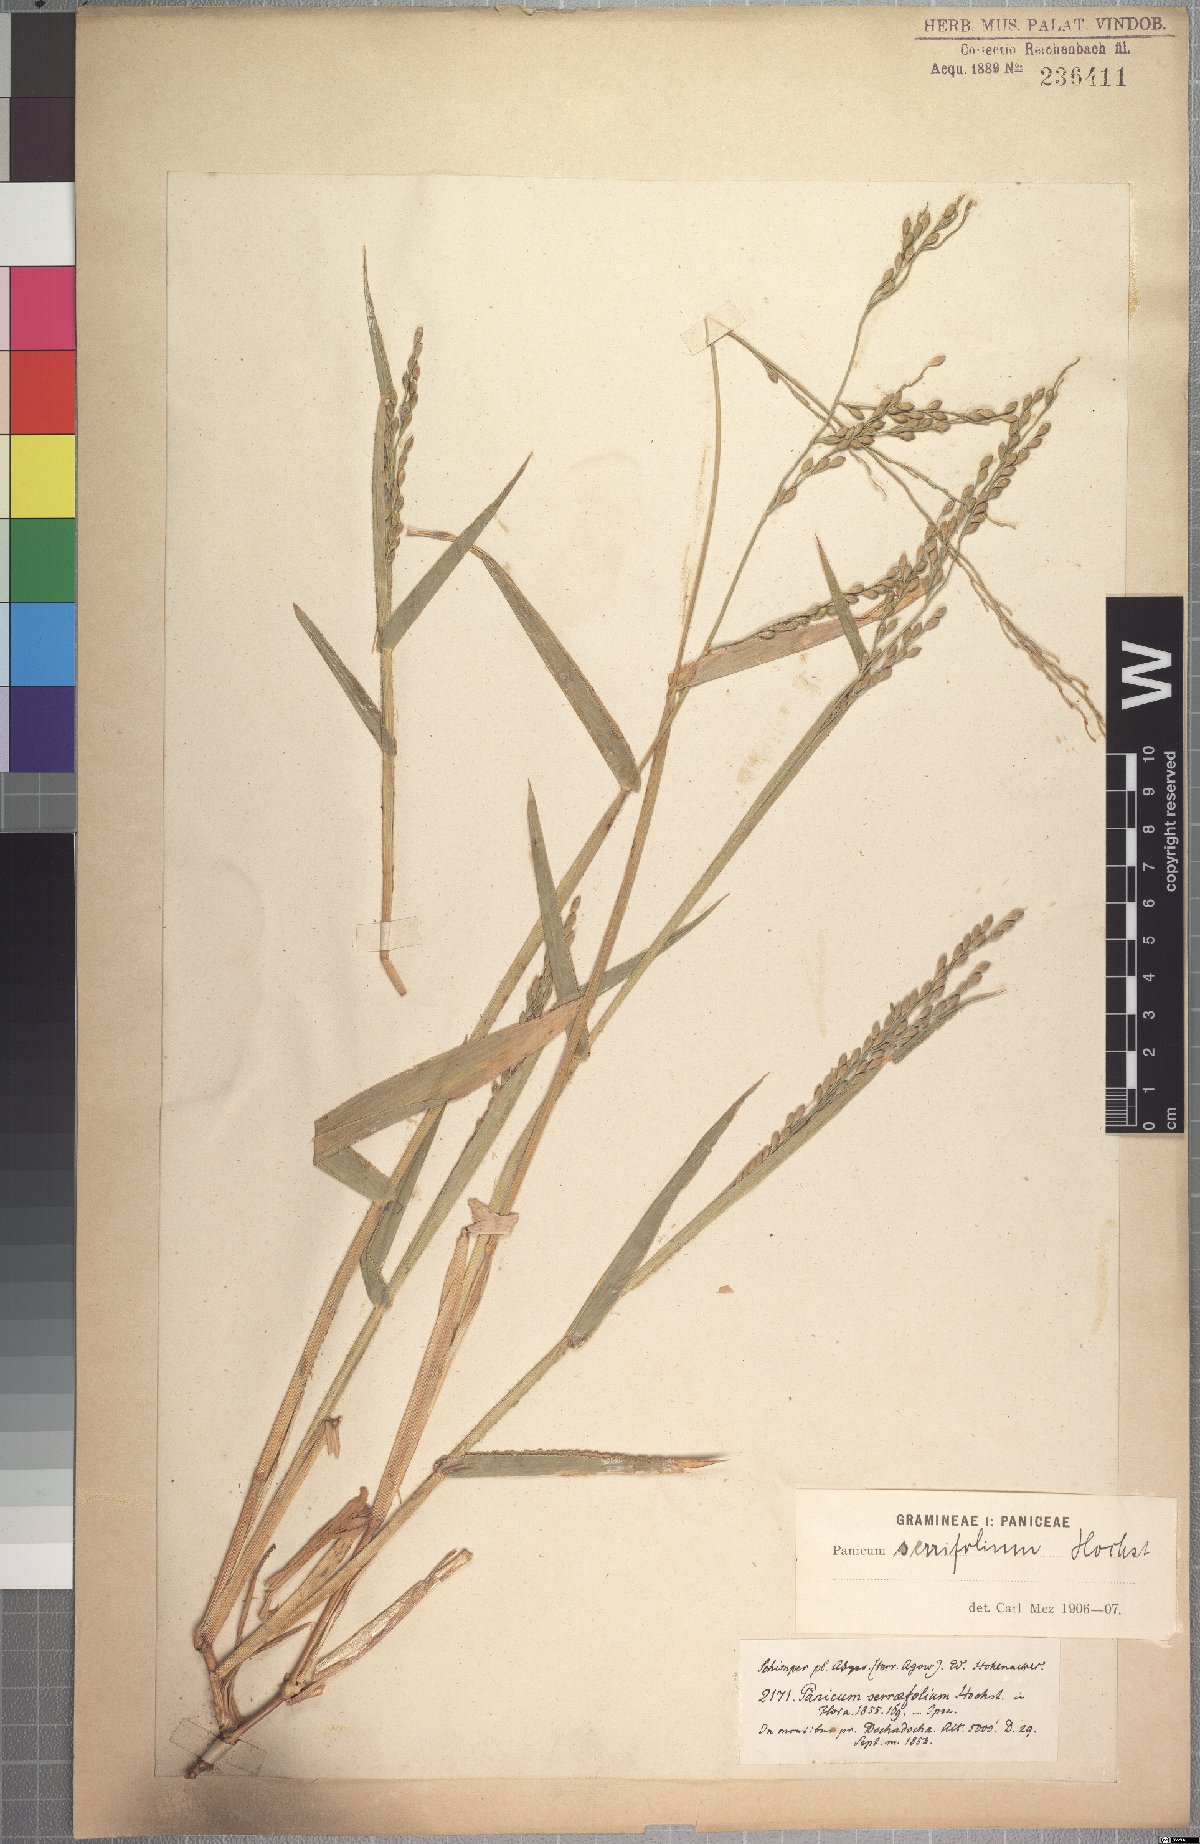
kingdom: Plantae
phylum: Tracheophyta
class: Liliopsida
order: Poales
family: Poaceae
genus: Urochloa
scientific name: Urochloa serrifolia
